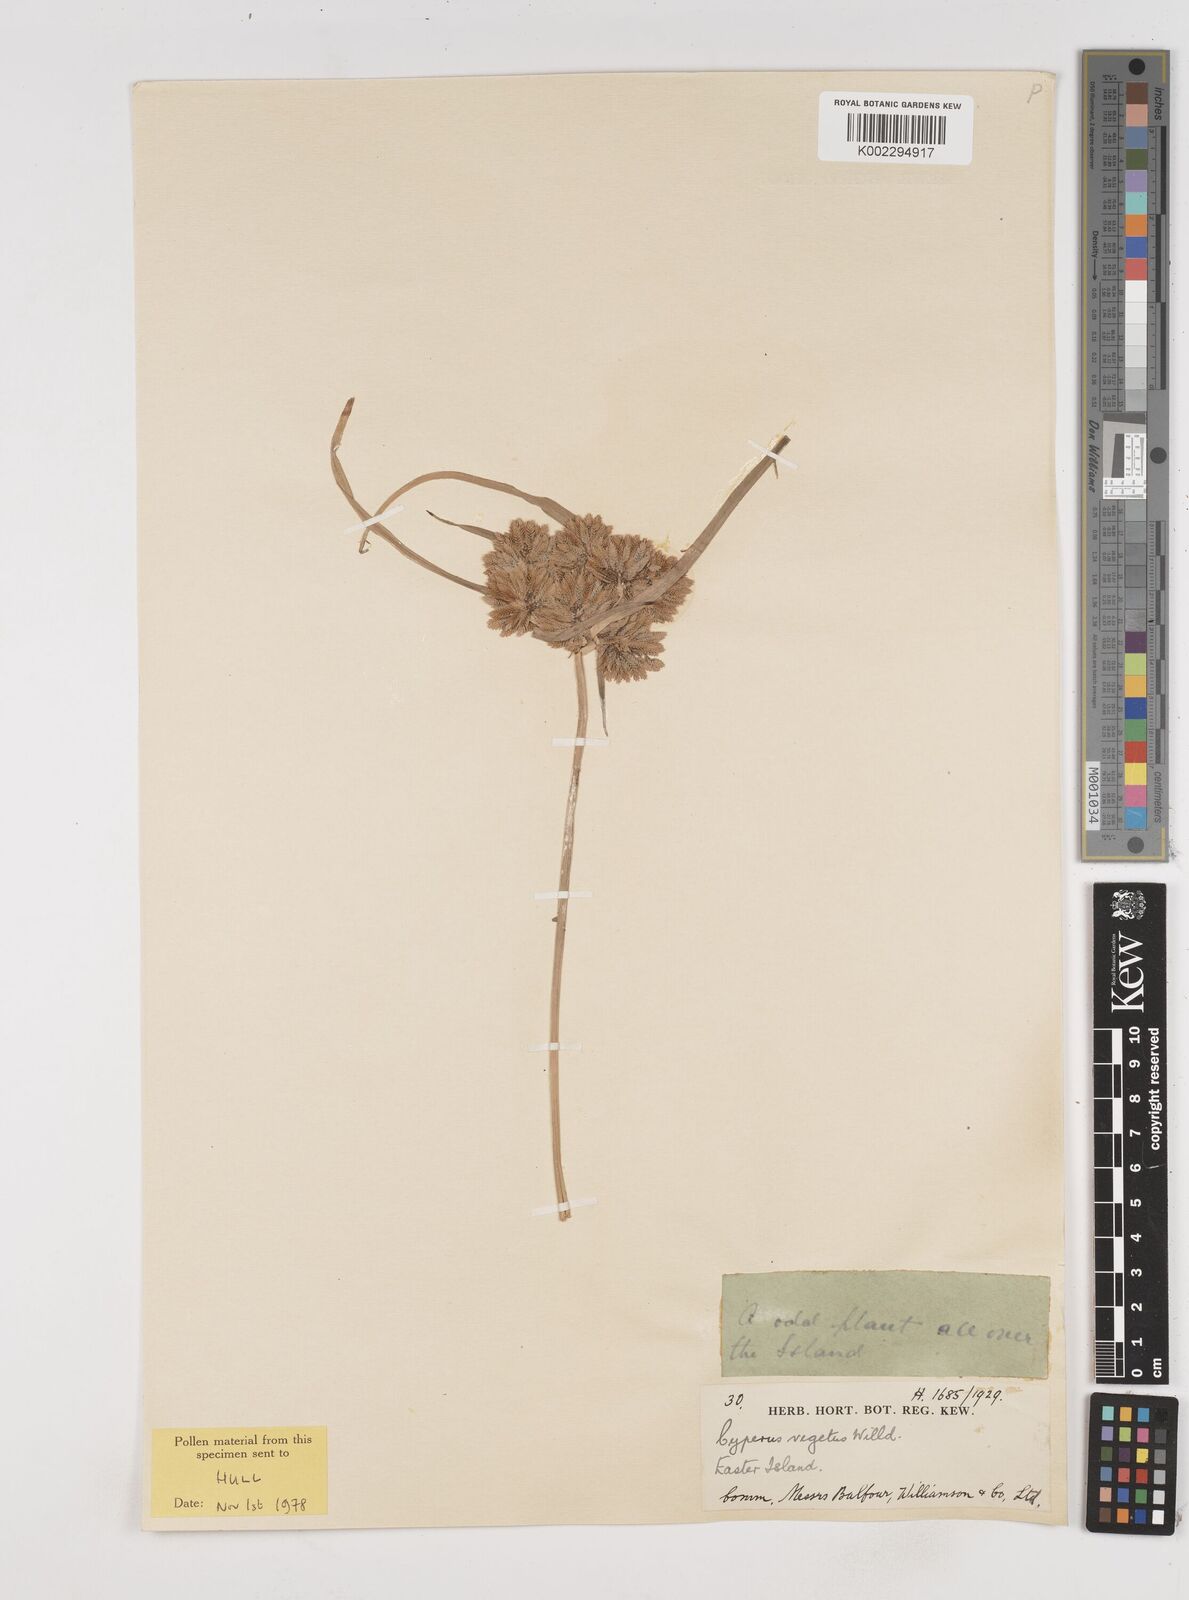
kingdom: Plantae
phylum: Tracheophyta
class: Liliopsida
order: Poales
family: Cyperaceae
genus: Cyperus
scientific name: Cyperus eragrostis
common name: Tall flatsedge
